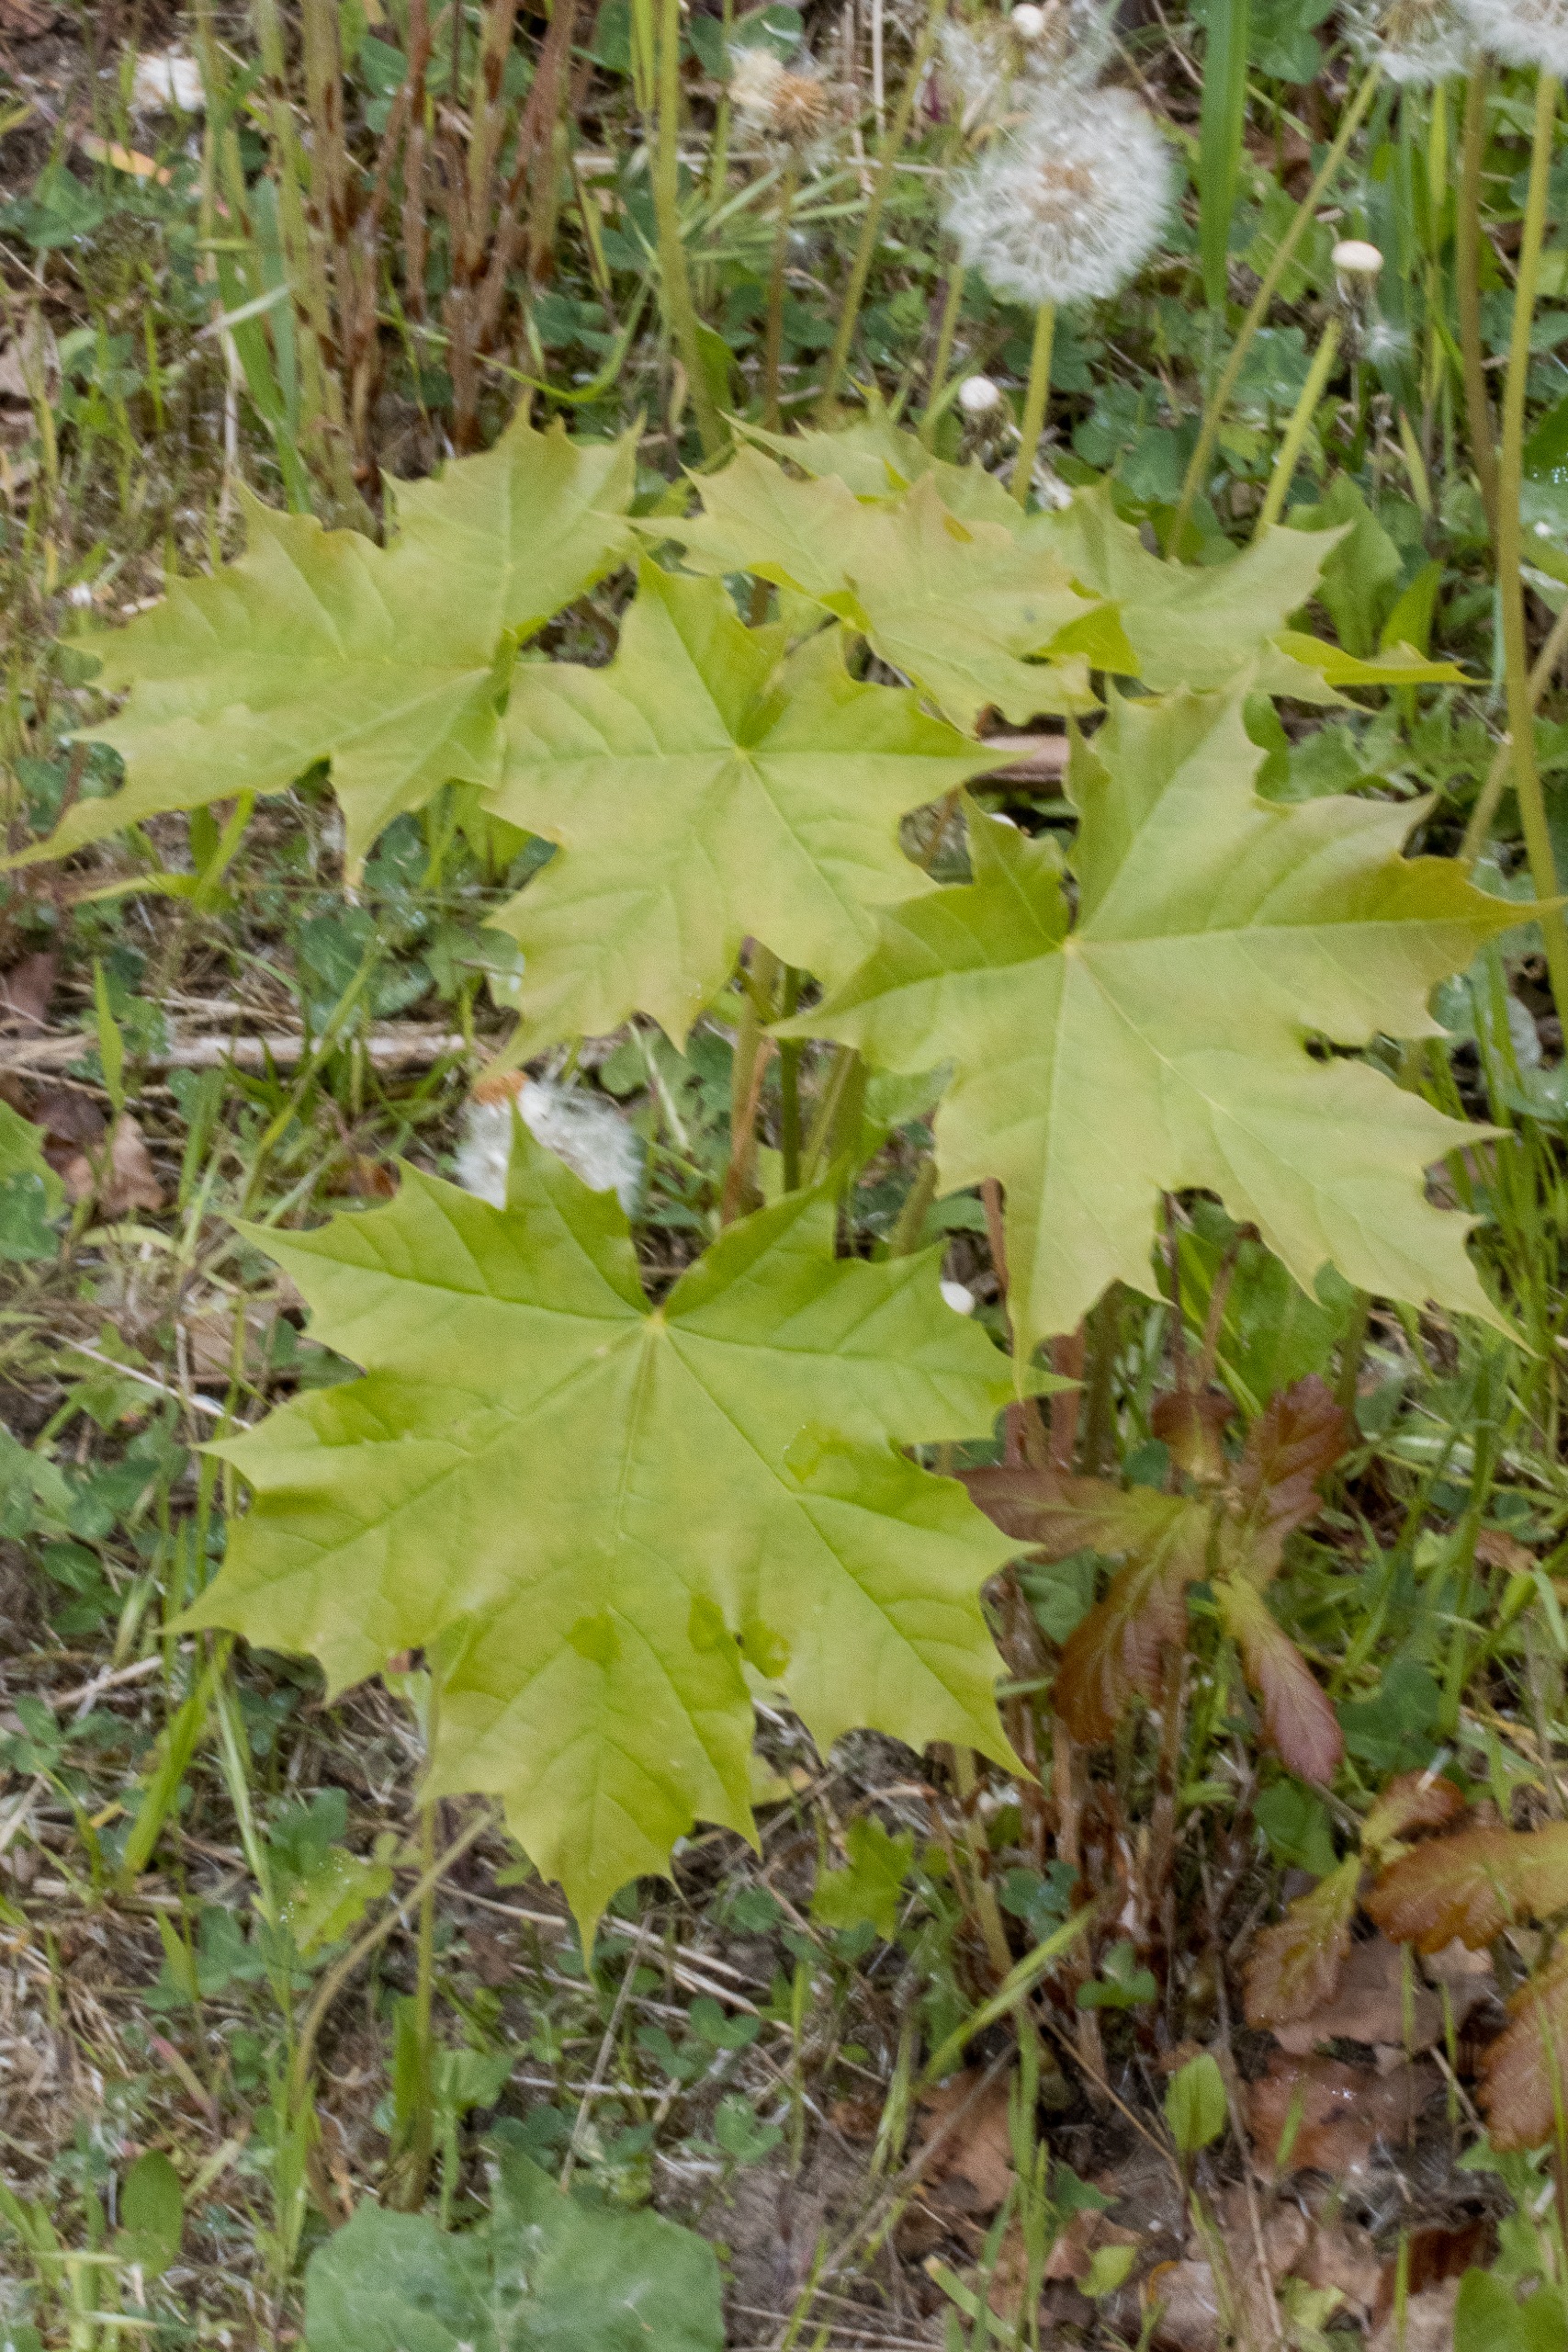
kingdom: Plantae
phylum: Tracheophyta
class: Magnoliopsida
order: Sapindales
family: Sapindaceae
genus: Acer
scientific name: Acer platanoides
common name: Spids-løn
